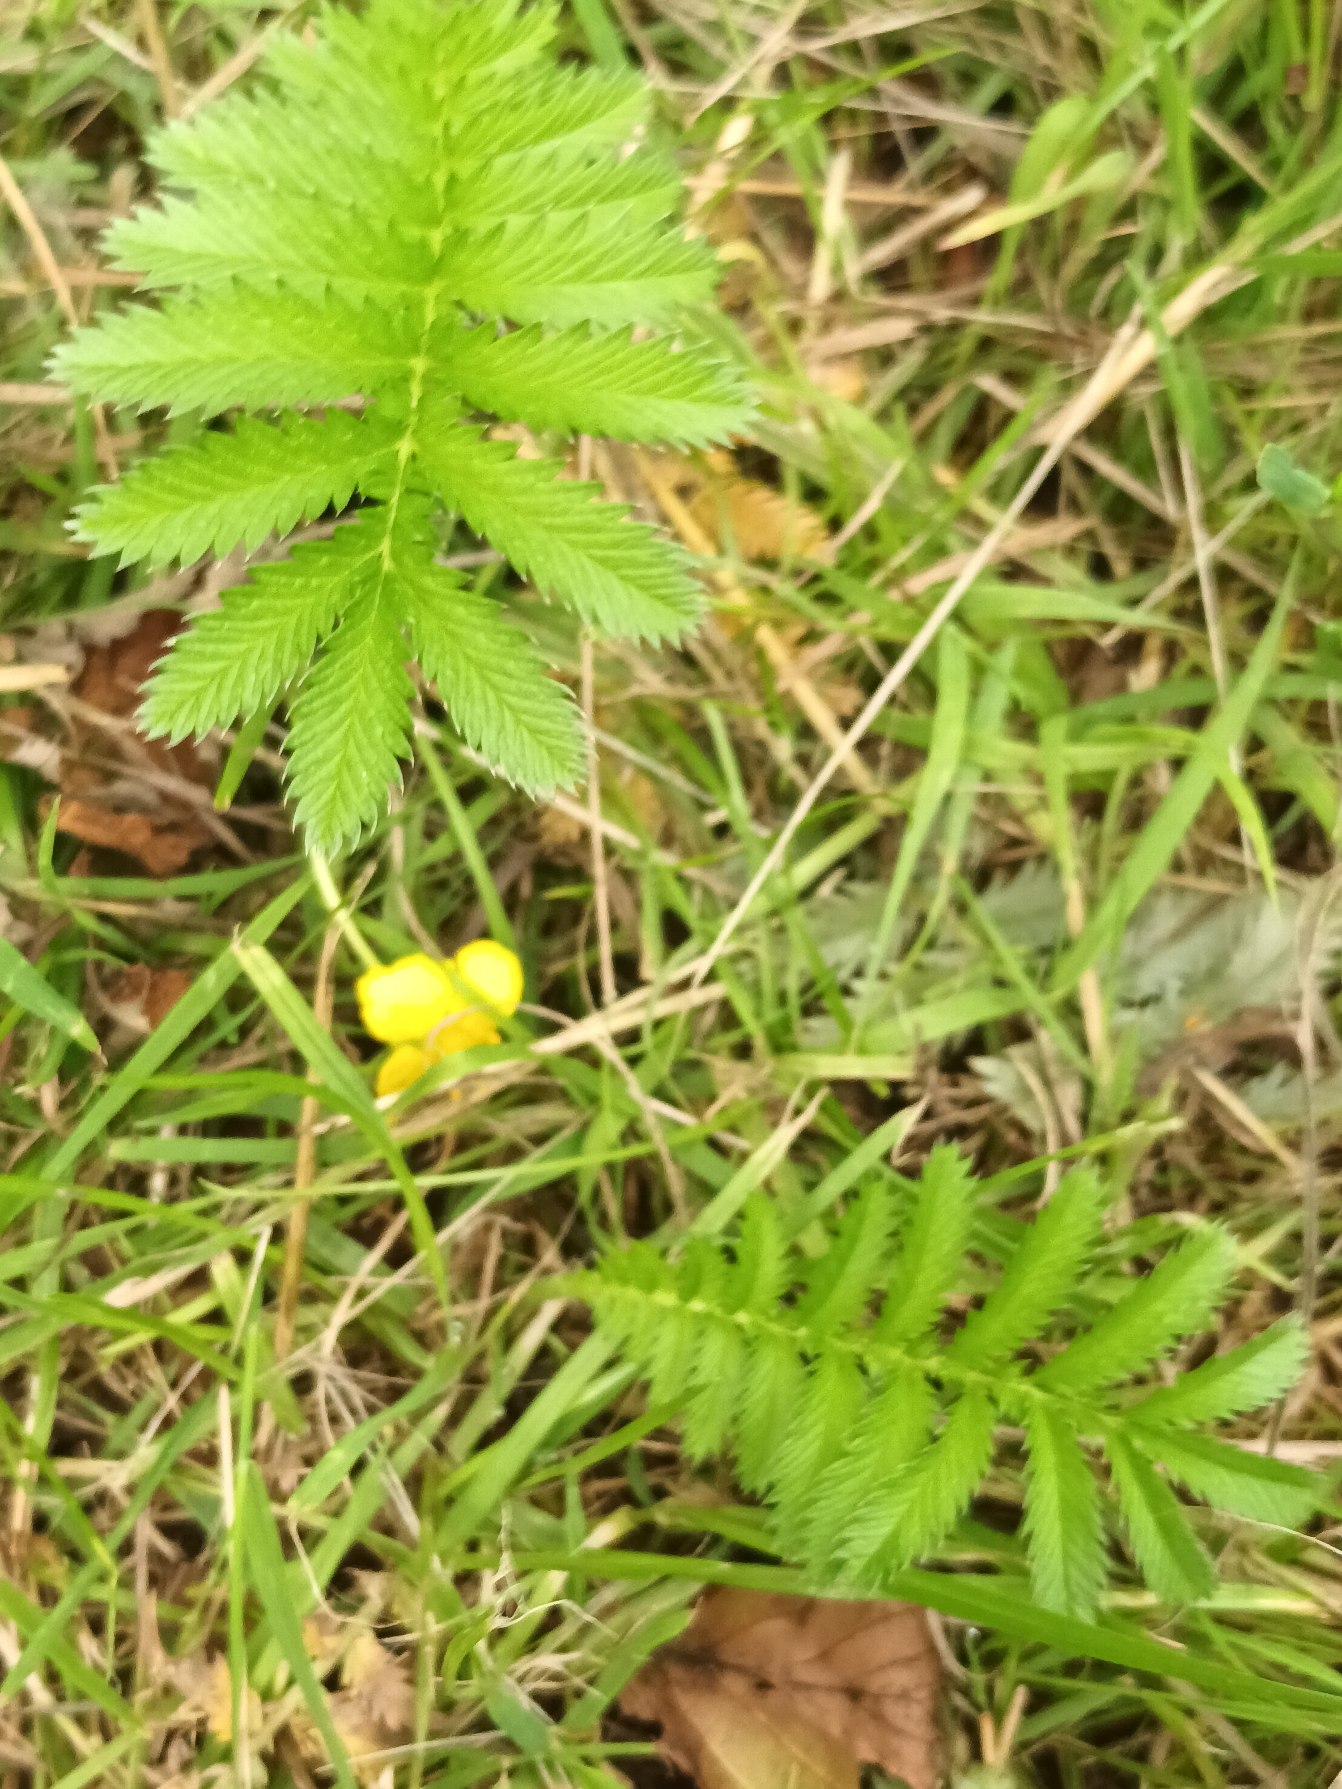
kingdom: Plantae
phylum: Tracheophyta
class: Magnoliopsida
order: Rosales
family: Rosaceae
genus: Argentina
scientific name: Argentina anserina
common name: Gåsepotentil
